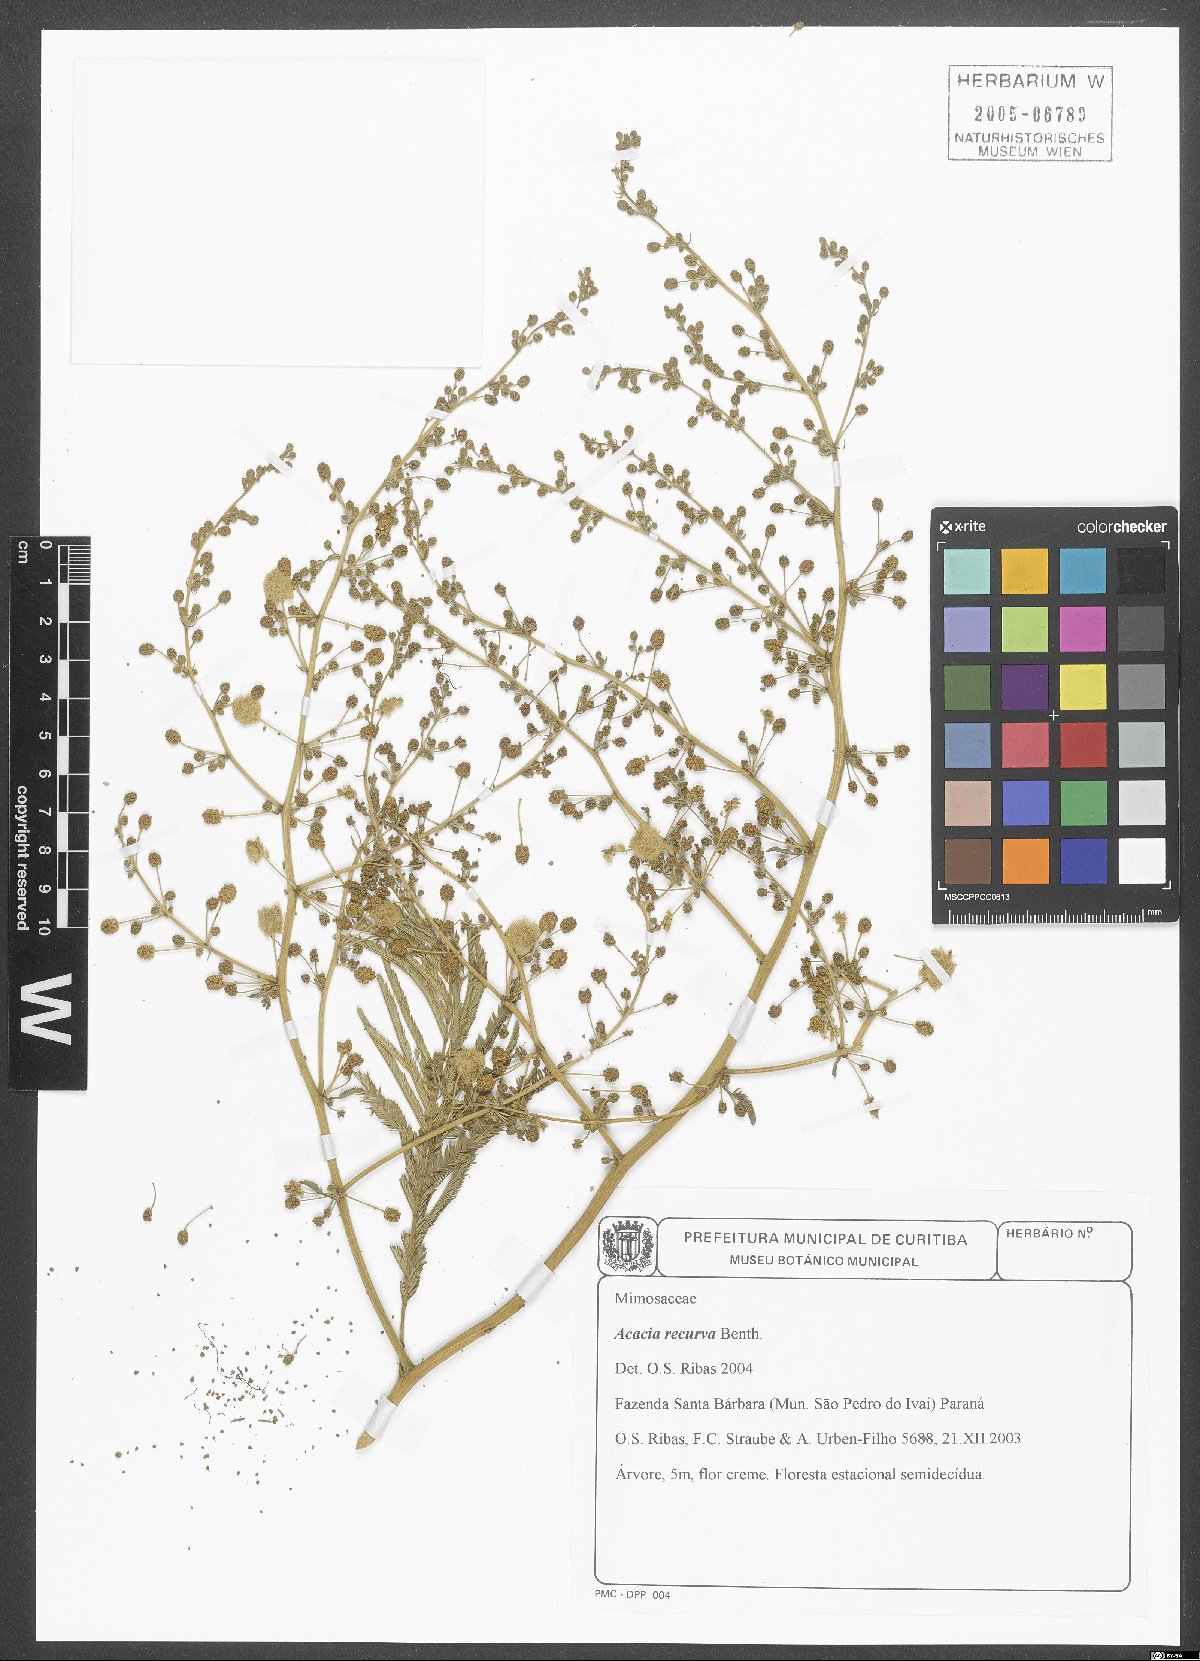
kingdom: Plantae
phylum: Tracheophyta
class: Magnoliopsida
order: Fabales
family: Fabaceae
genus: Senegalia
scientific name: Senegalia recurva
